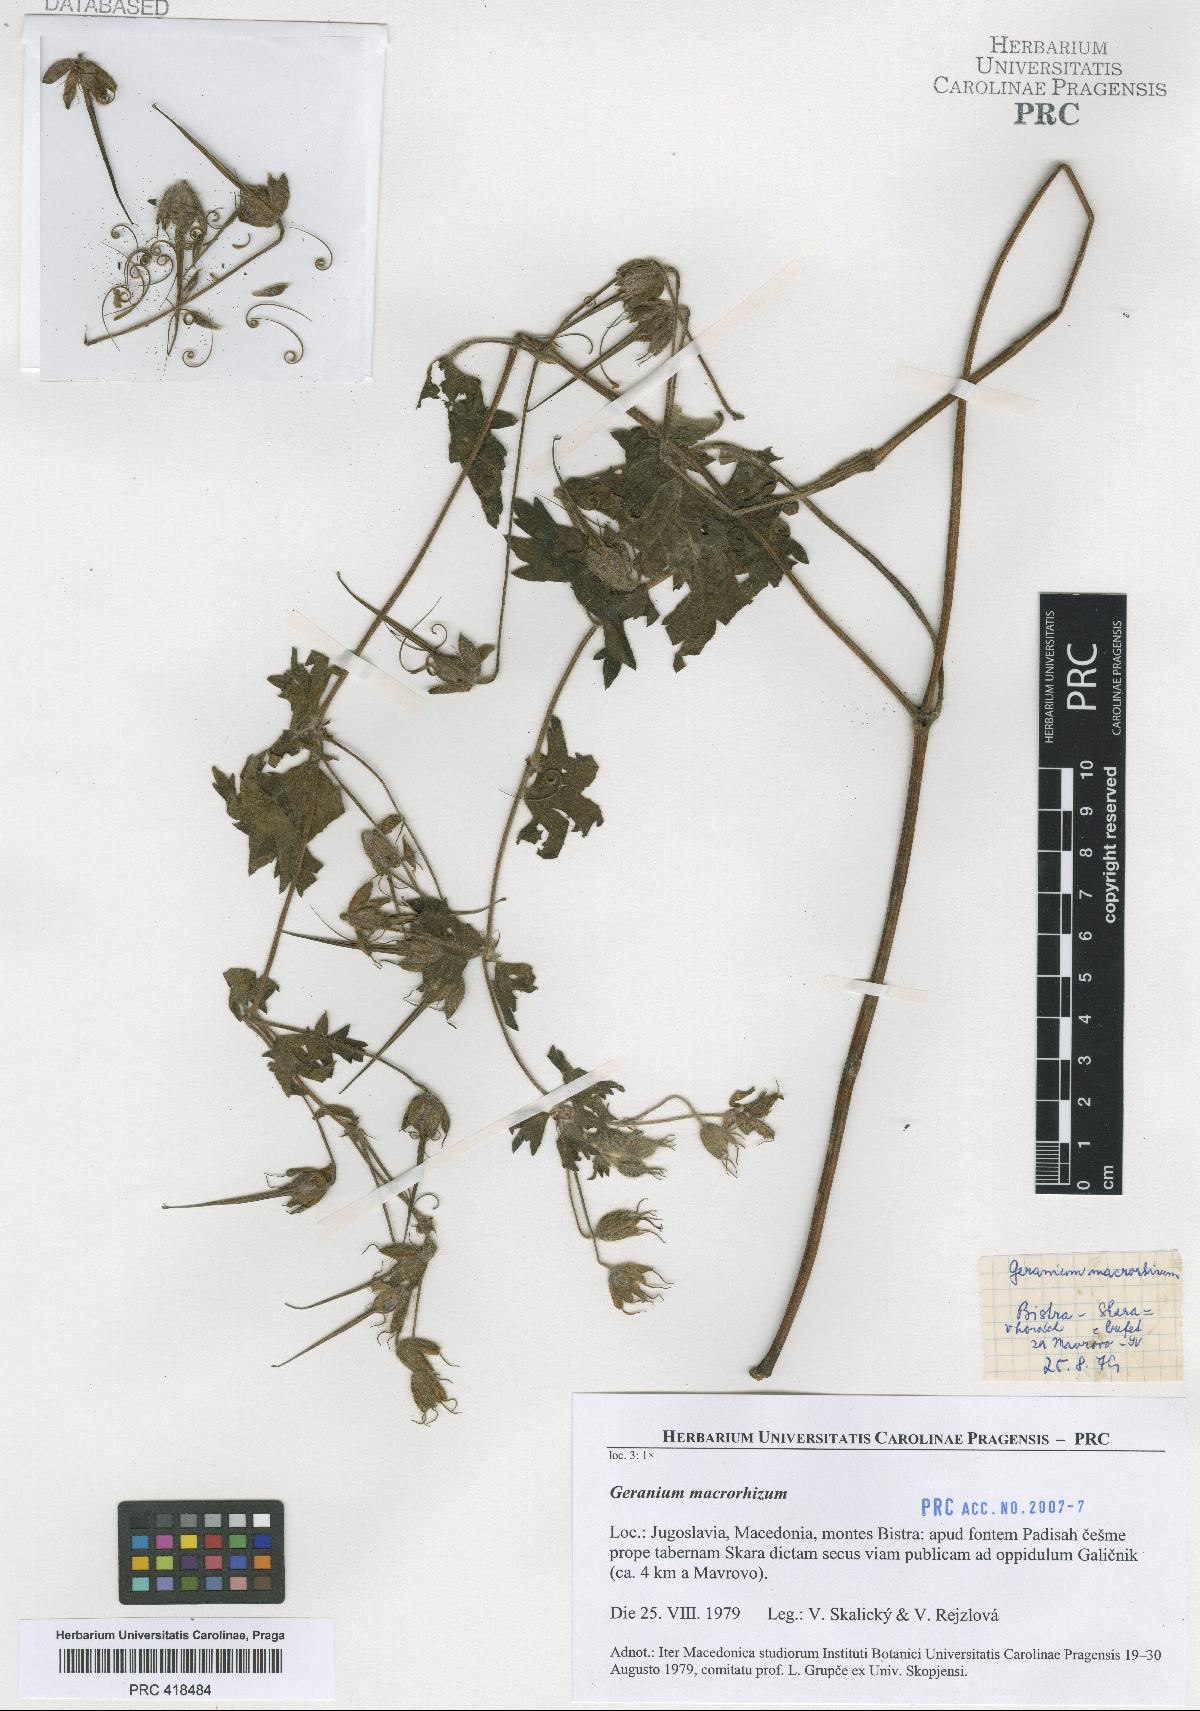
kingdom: Plantae
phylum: Tracheophyta
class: Magnoliopsida
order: Geraniales
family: Geraniaceae
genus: Geranium
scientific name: Geranium aristatum
